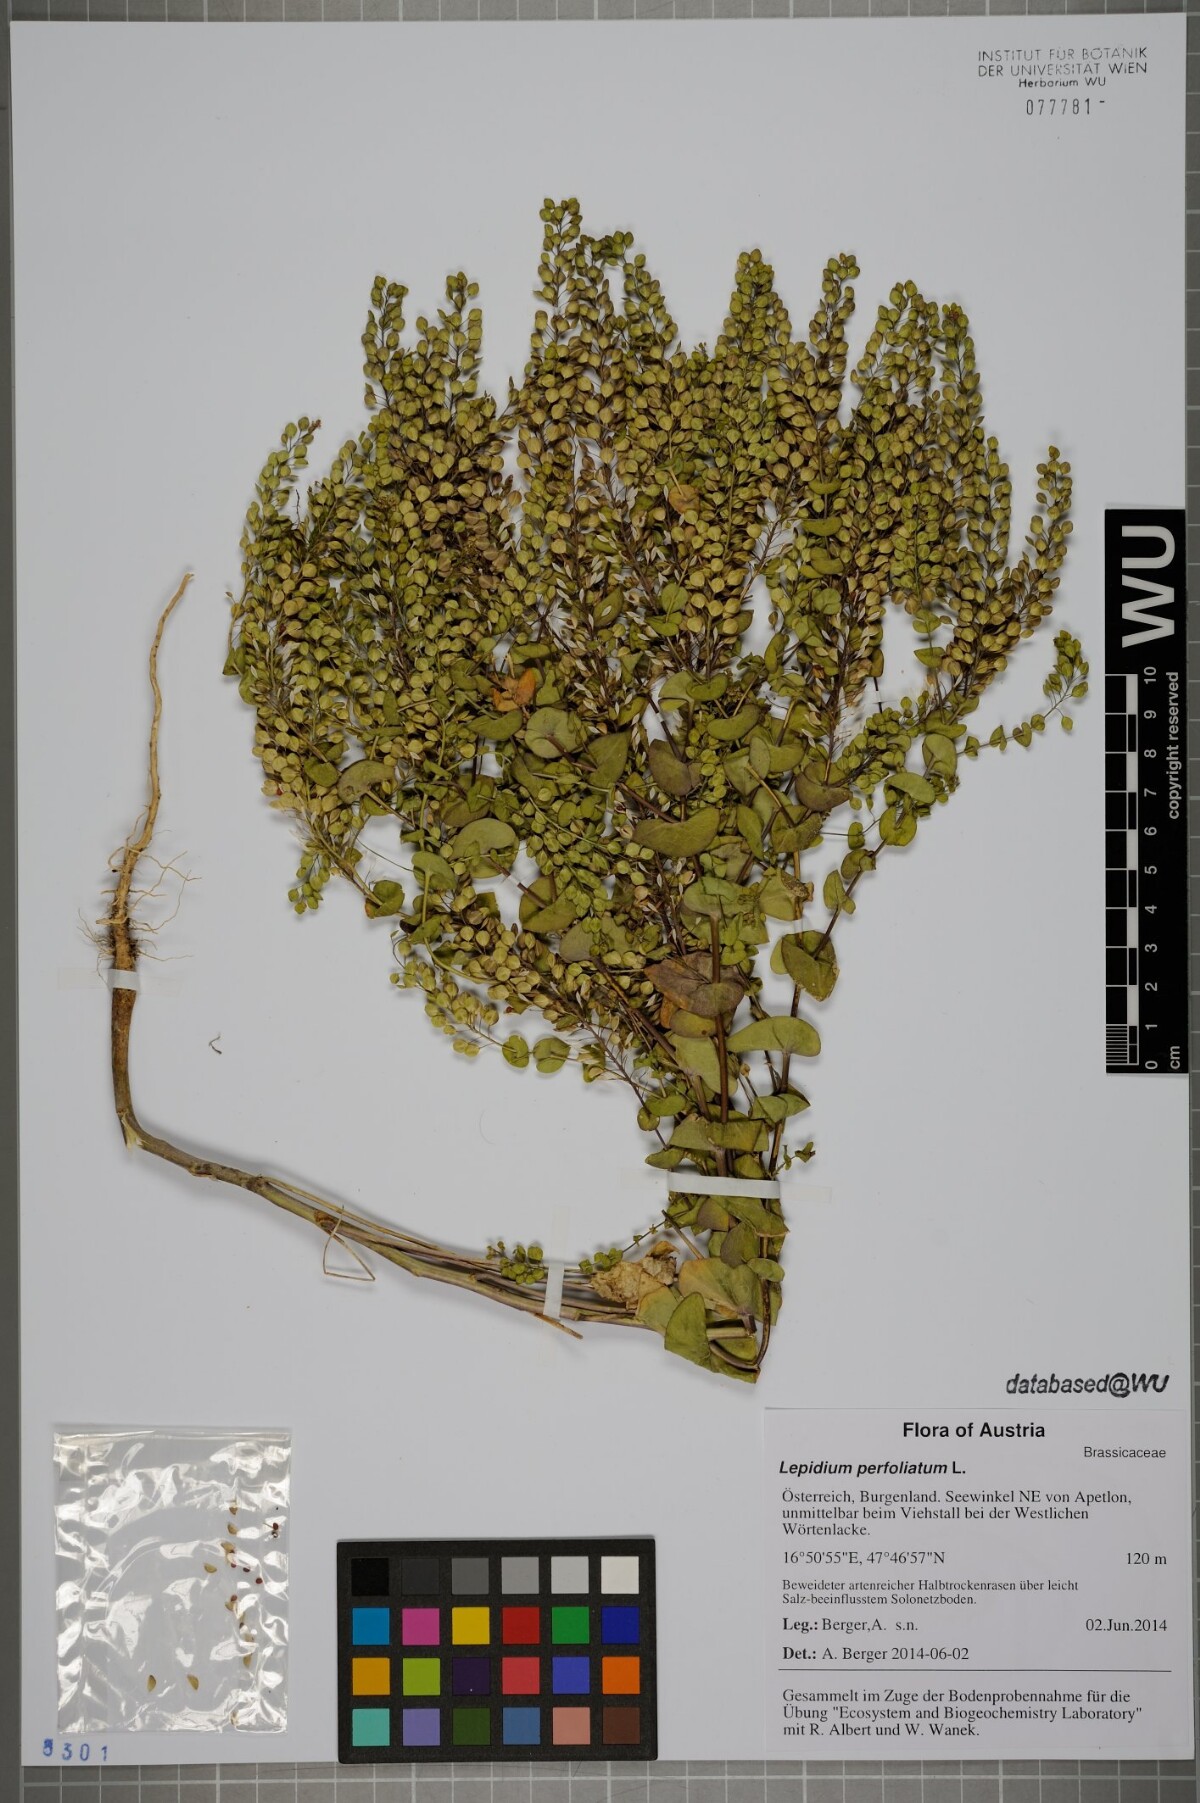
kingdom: Plantae
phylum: Tracheophyta
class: Magnoliopsida
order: Brassicales
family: Brassicaceae
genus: Lepidium
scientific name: Lepidium perfoliatum
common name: Perfoliate pepperwort
